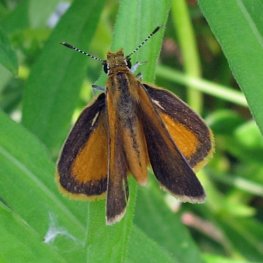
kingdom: Animalia
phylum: Arthropoda
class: Insecta
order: Lepidoptera
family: Hesperiidae
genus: Ancyloxypha
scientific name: Ancyloxypha numitor
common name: Least Skipper
